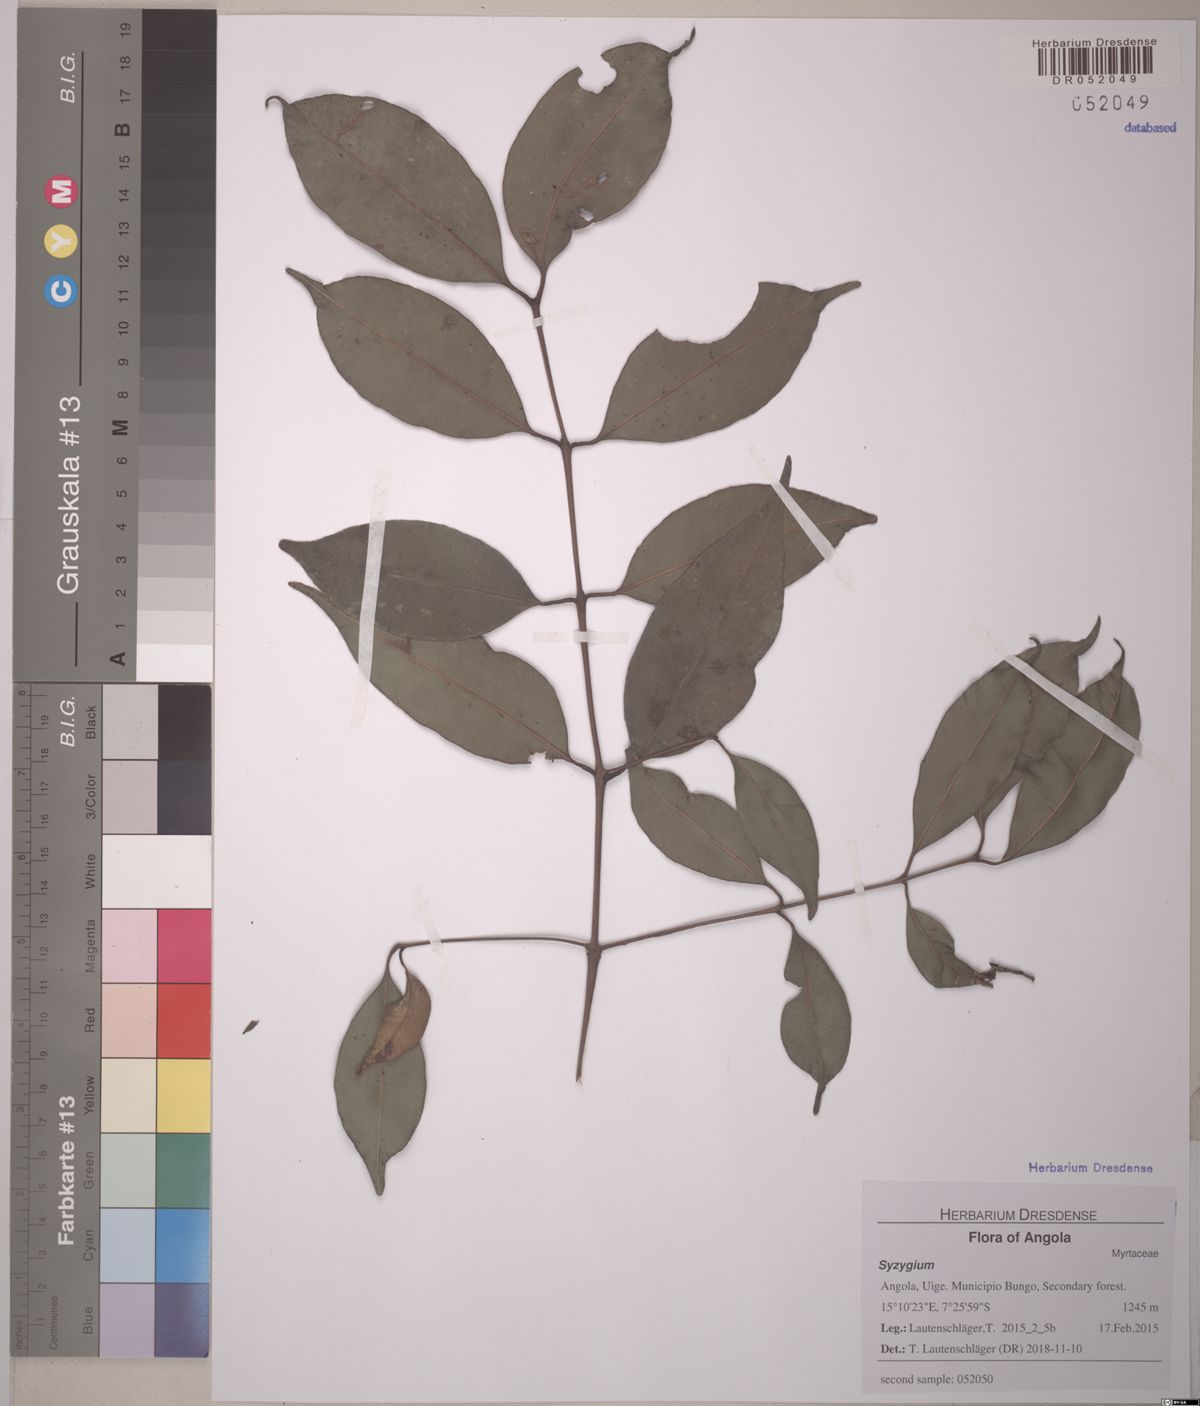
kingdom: Plantae
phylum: Tracheophyta
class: Magnoliopsida
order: Myrtales
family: Myrtaceae
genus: Syzygium
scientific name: Syzygium
